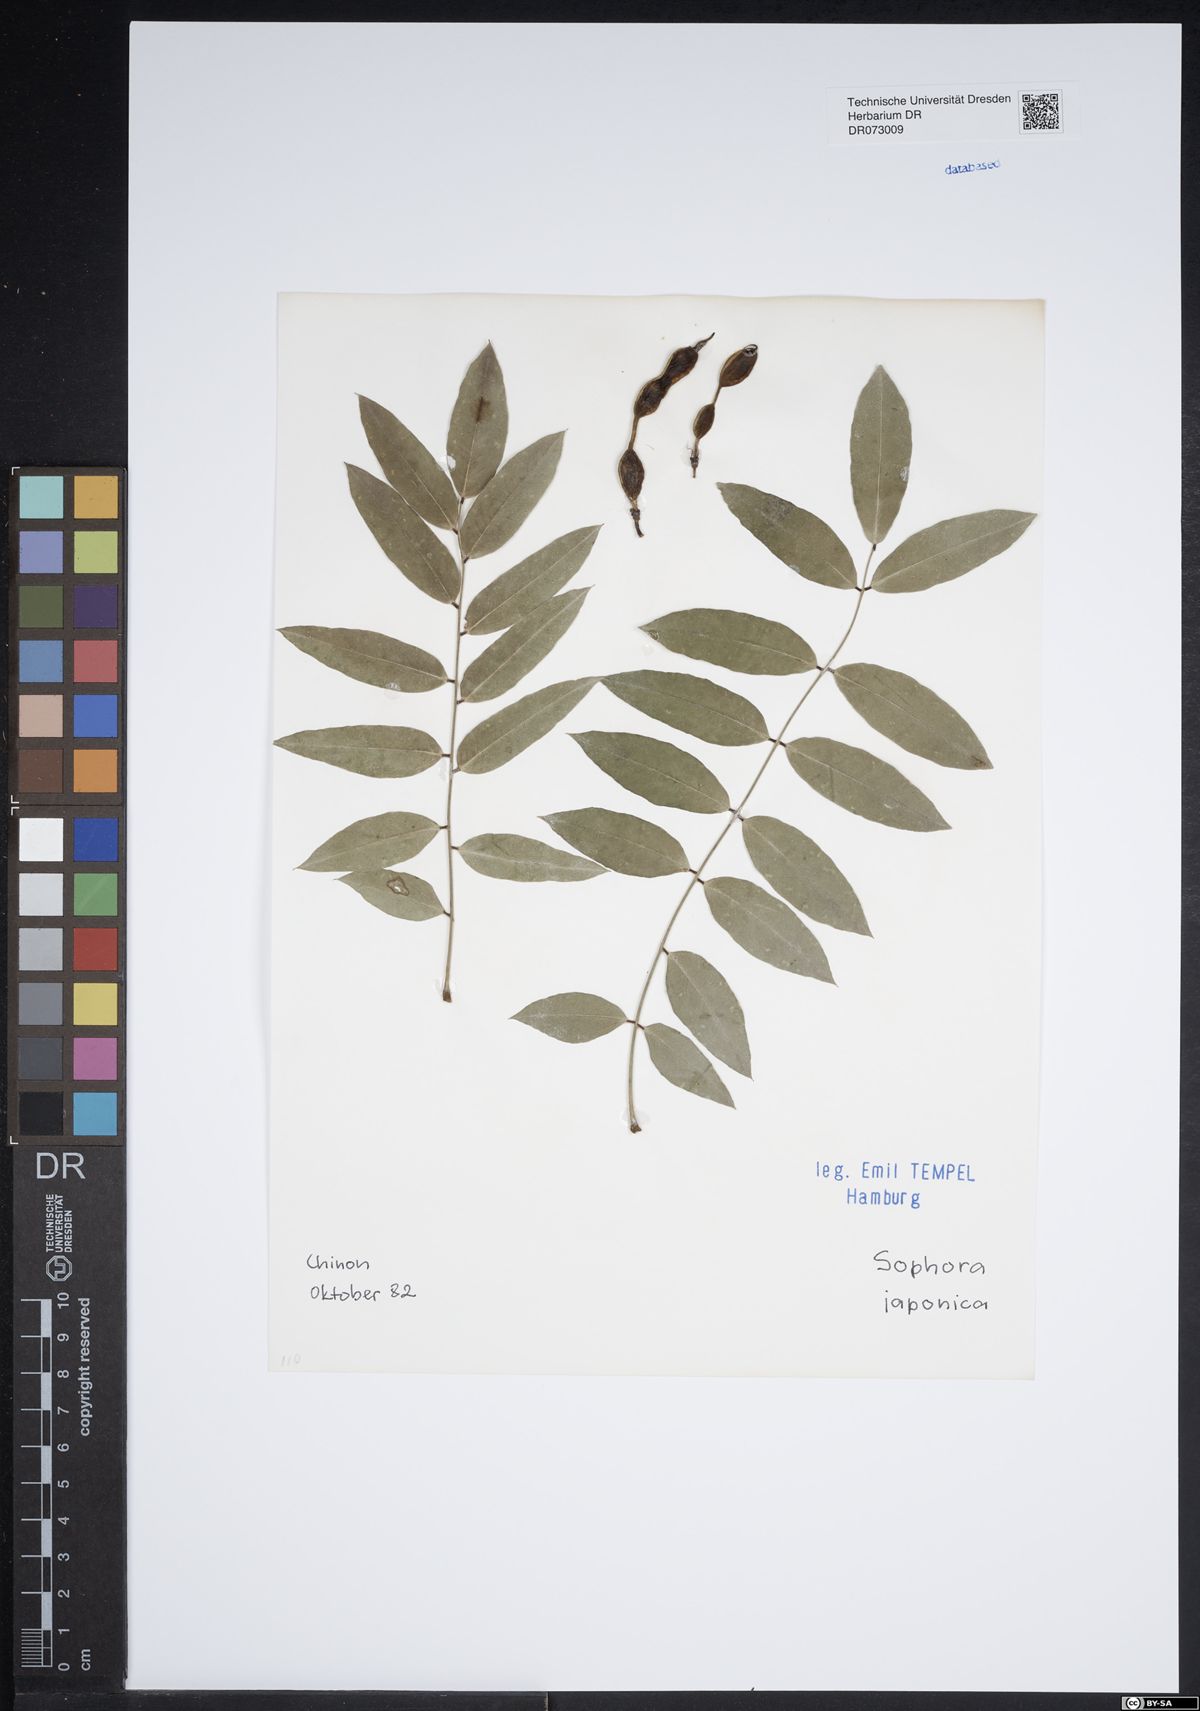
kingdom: Plantae
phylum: Tracheophyta
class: Magnoliopsida
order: Fabales
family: Fabaceae
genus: Styphnolobium
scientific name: Styphnolobium japonicum
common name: Chinese scholartree
